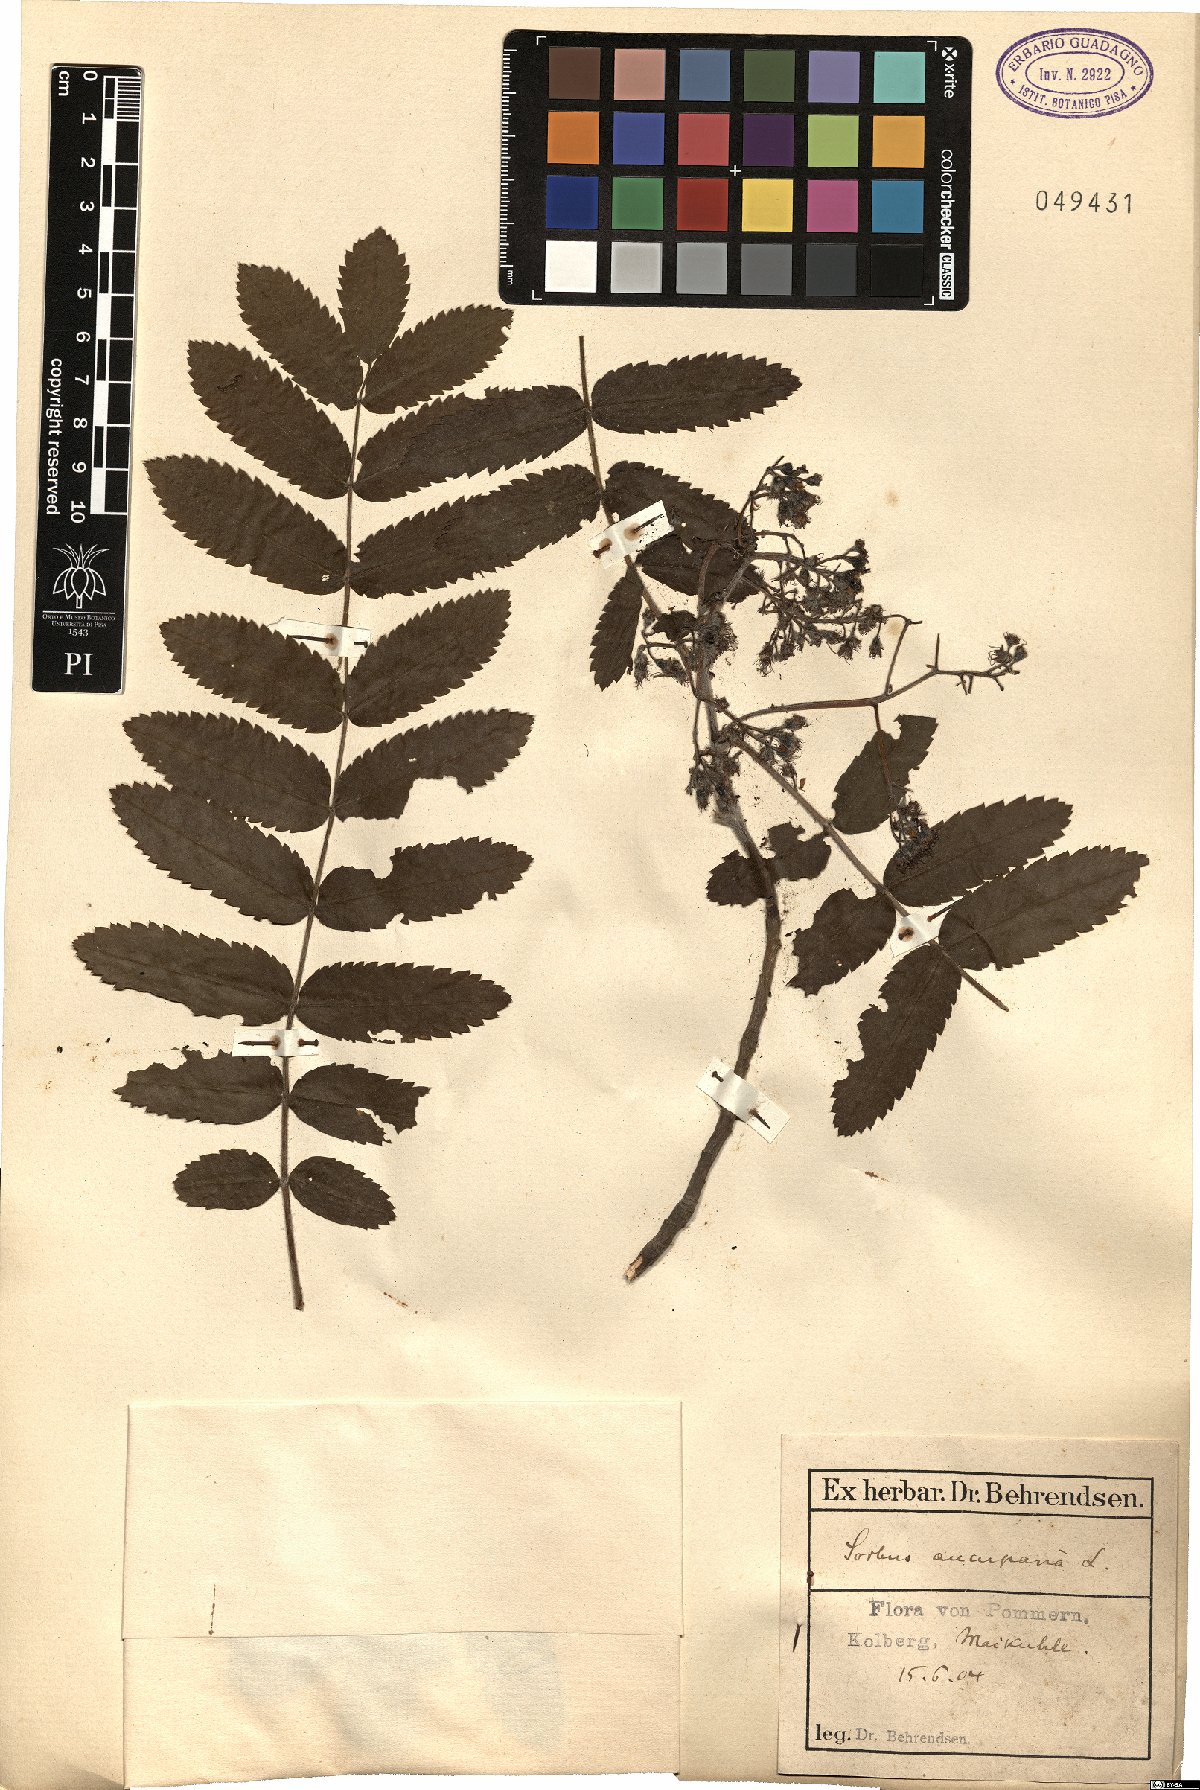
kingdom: Plantae
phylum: Tracheophyta
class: Magnoliopsida
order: Rosales
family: Rosaceae
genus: Sorbus
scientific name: Sorbus aucuparia
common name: Rowan
